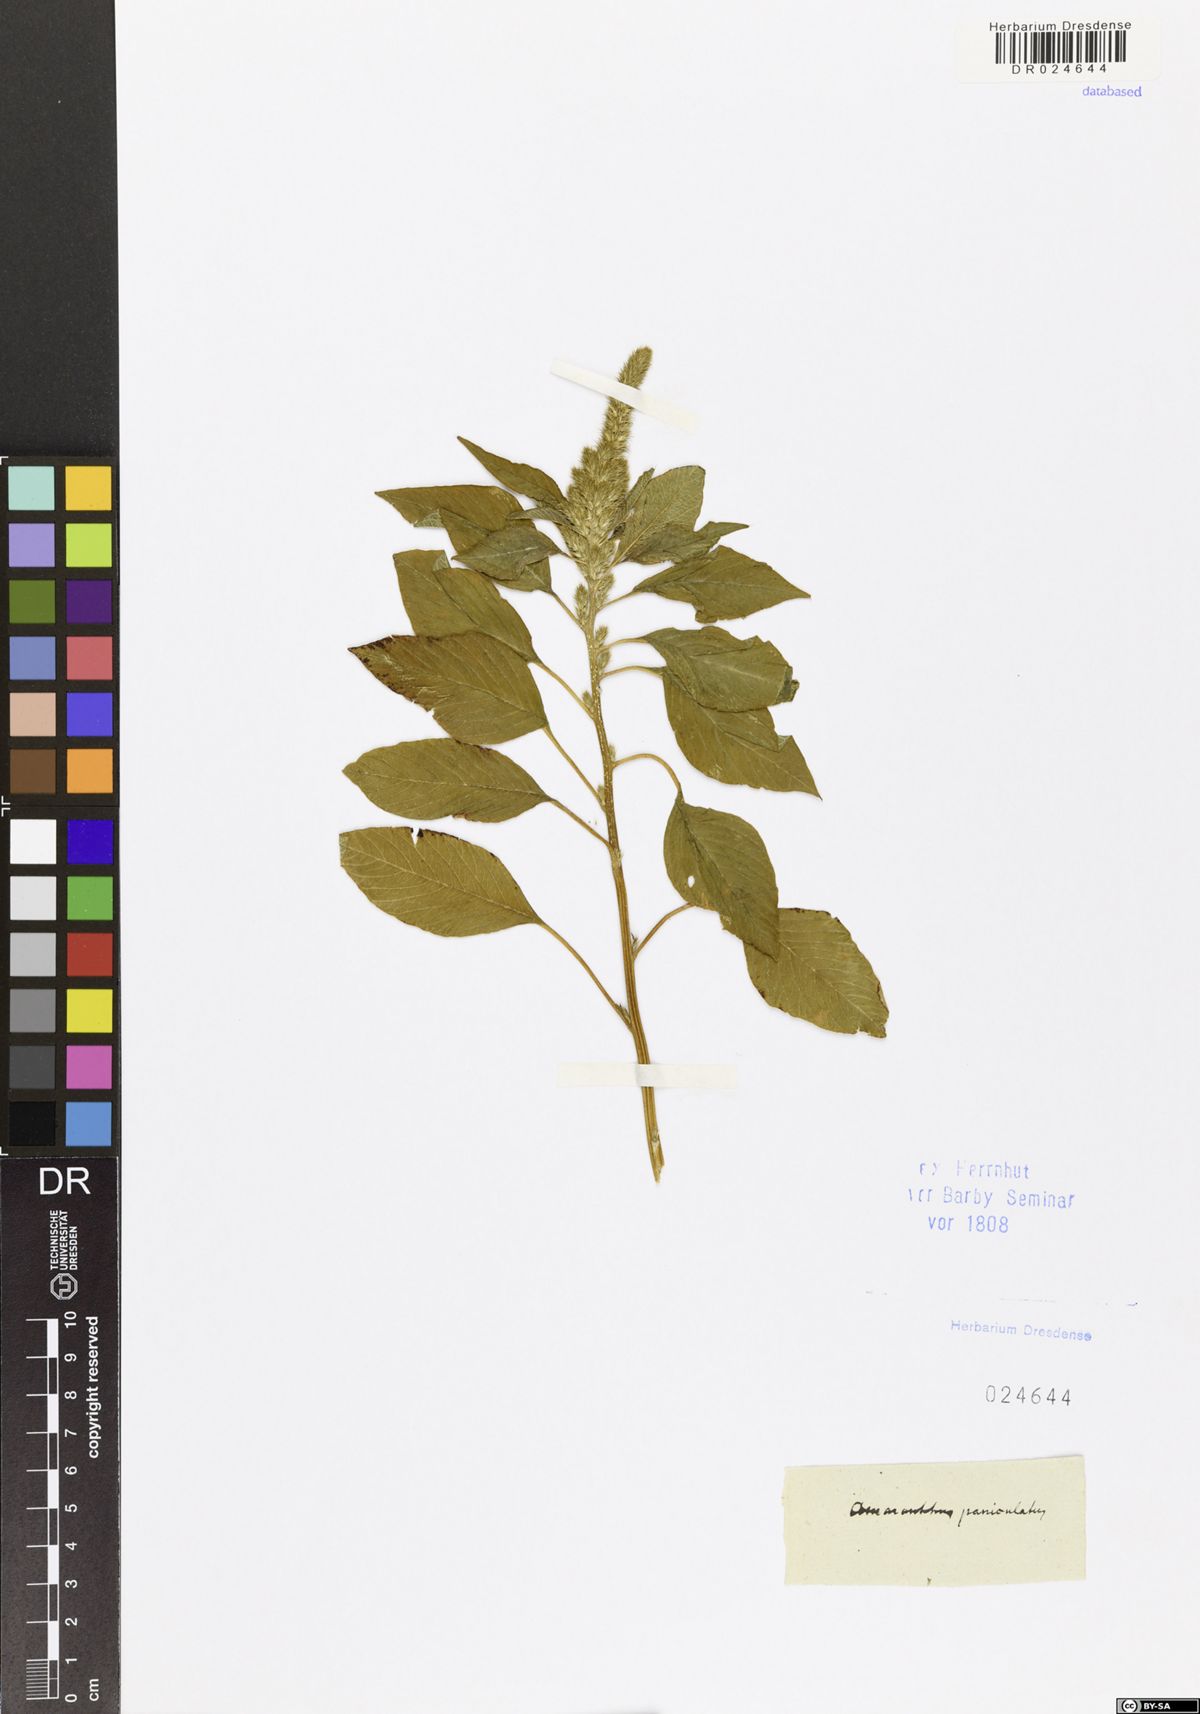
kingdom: Plantae
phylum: Tracheophyta
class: Magnoliopsida
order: Caryophyllales
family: Amaranthaceae
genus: Amaranthus
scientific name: Amaranthus cruentus
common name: Purple amaranth
